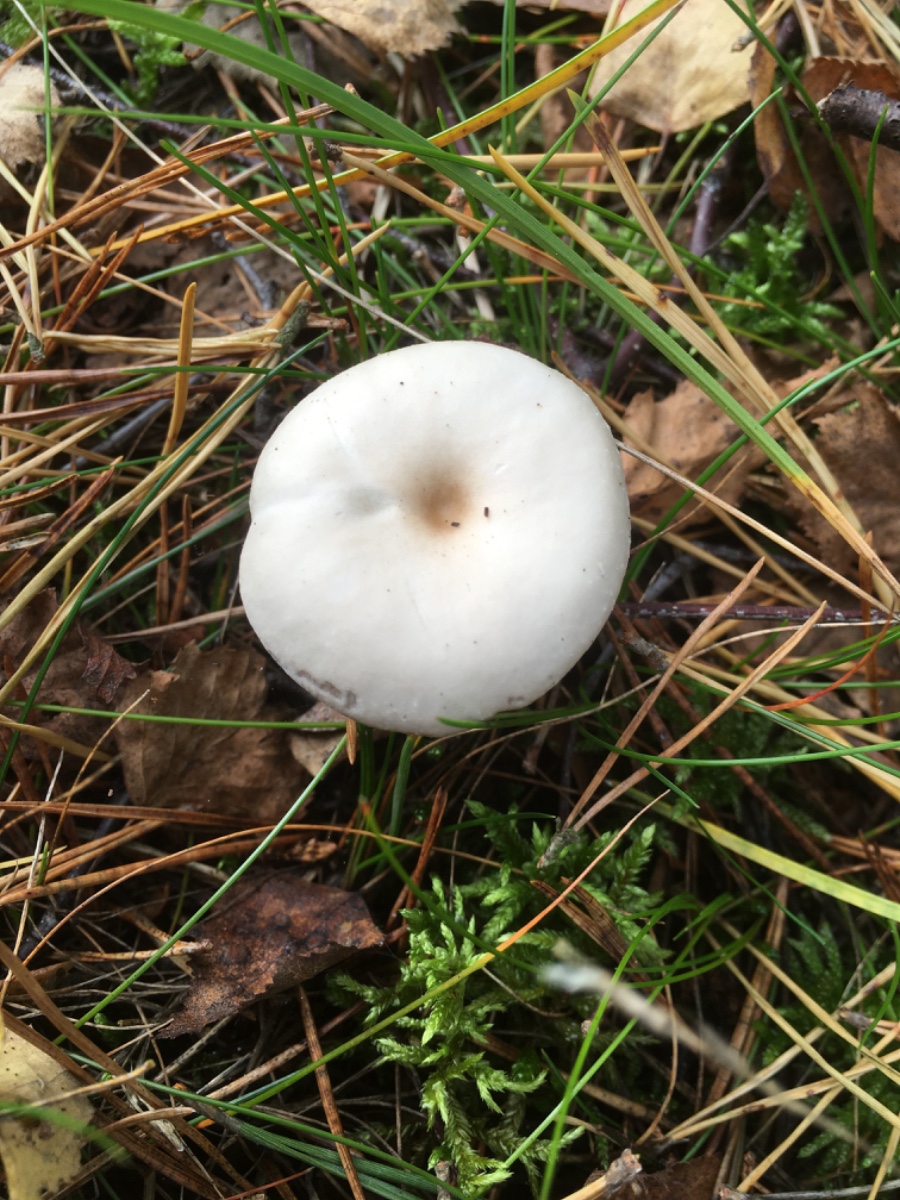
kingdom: Fungi
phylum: Basidiomycota
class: Agaricomycetes
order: Agaricales
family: Tricholomataceae
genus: Clitocybe
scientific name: Clitocybe
